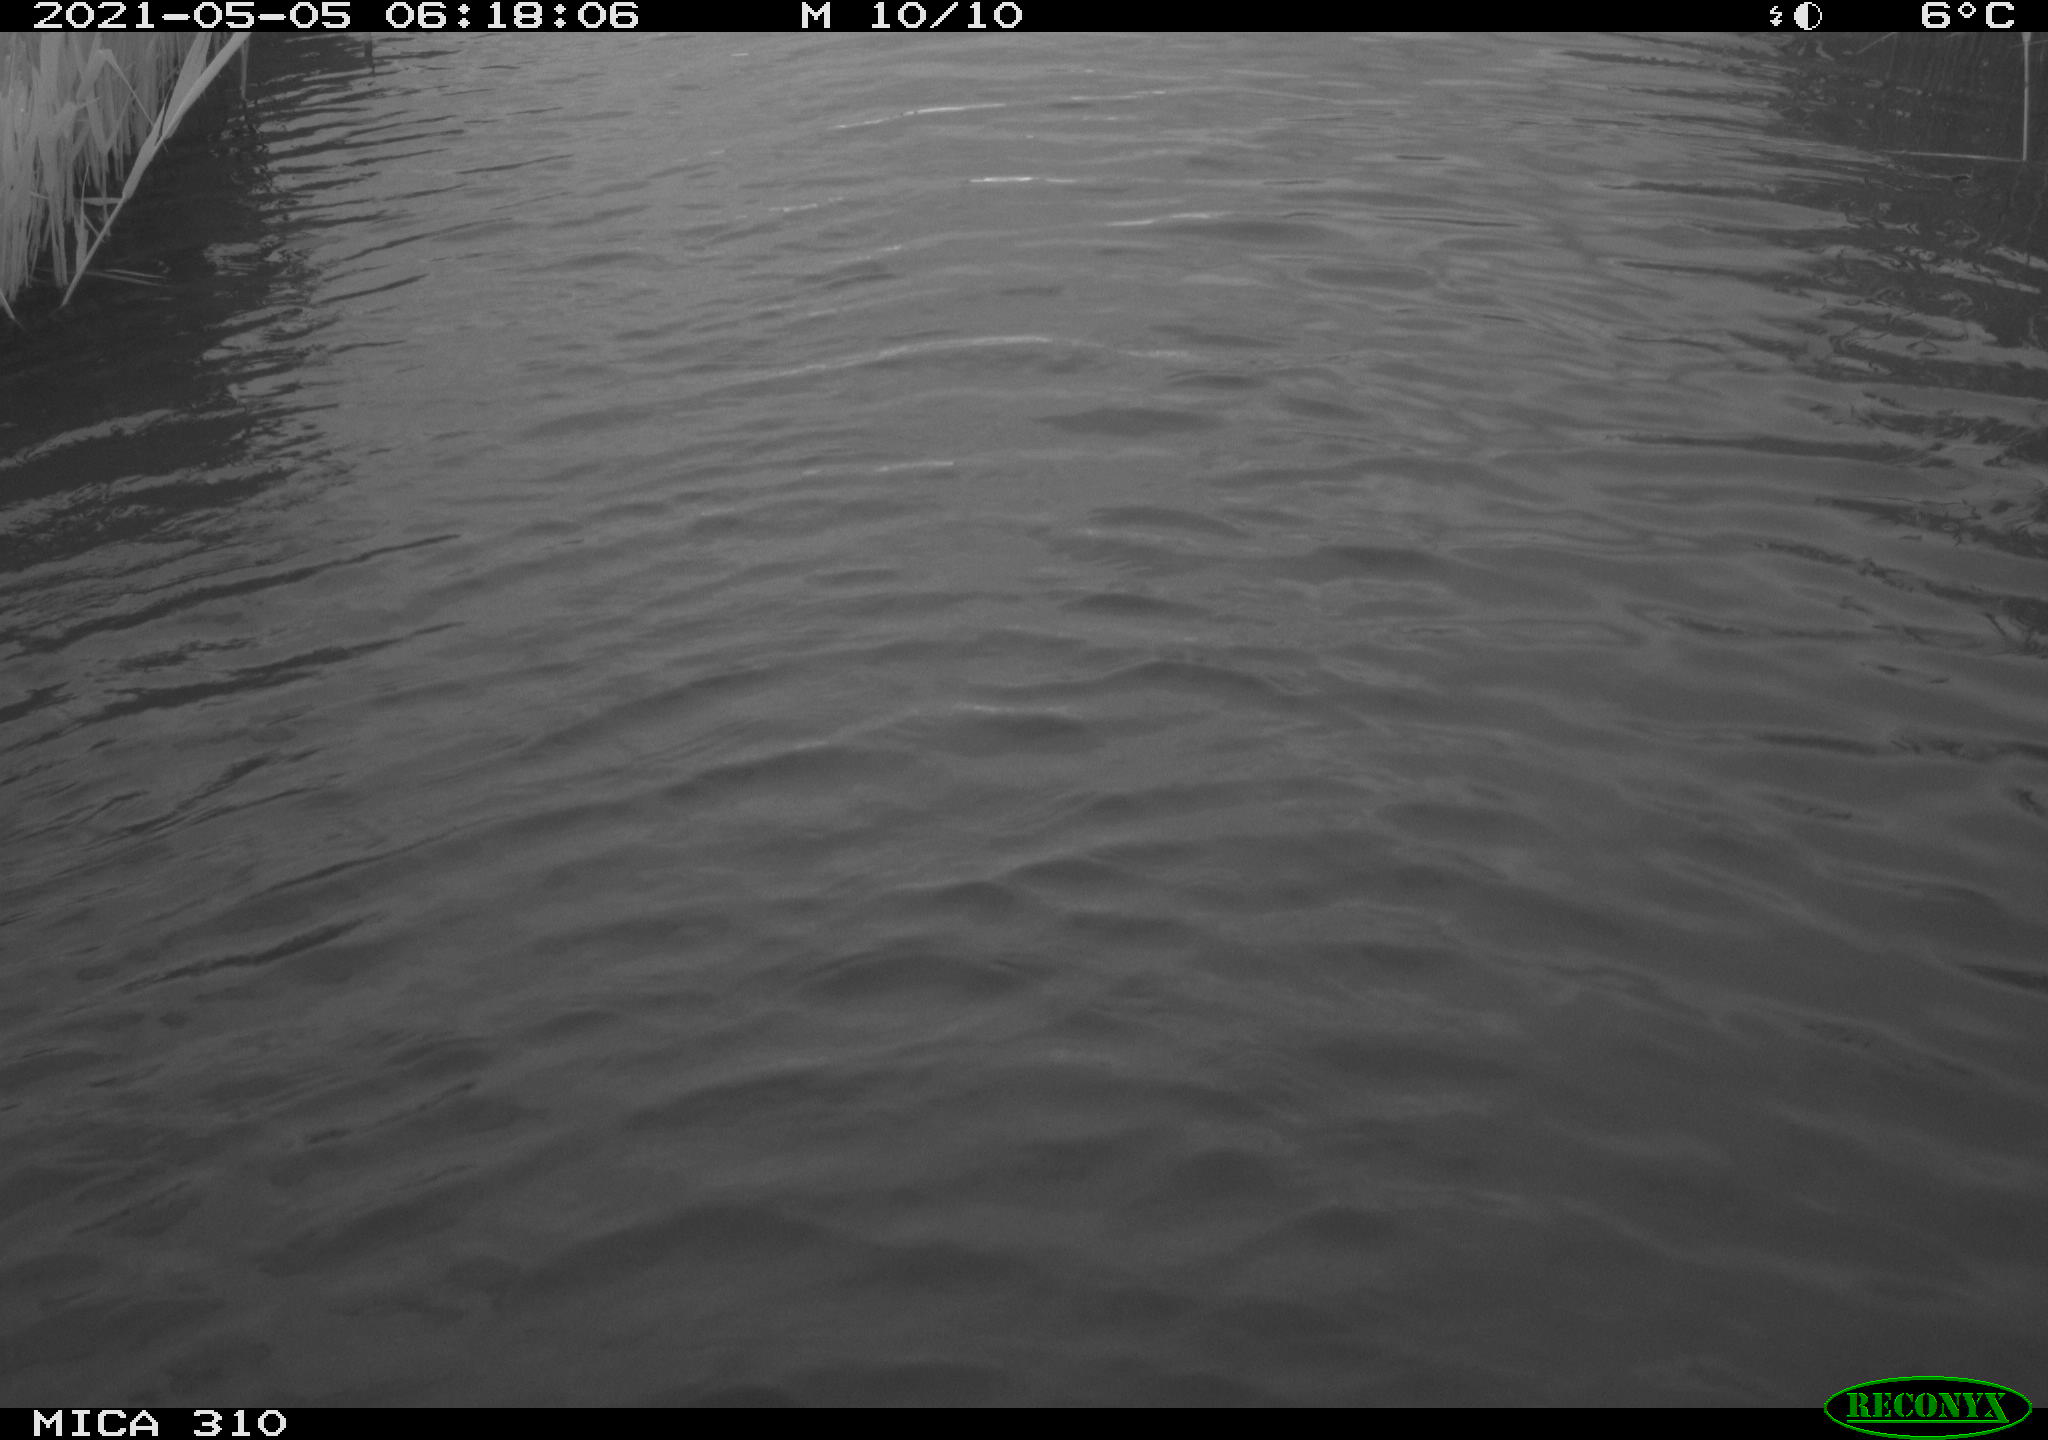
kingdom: Animalia
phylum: Chordata
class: Aves
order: Gruiformes
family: Rallidae
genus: Fulica
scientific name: Fulica atra
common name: Eurasian coot
